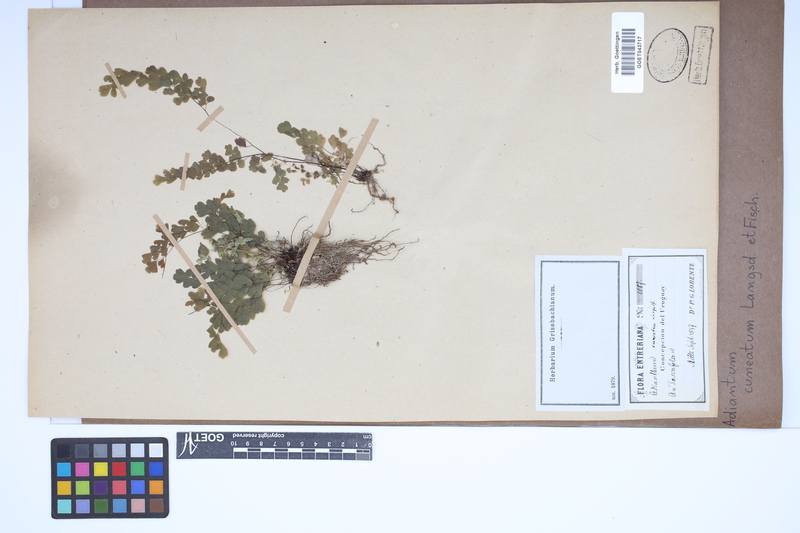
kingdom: Plantae
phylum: Tracheophyta
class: Polypodiopsida
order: Polypodiales
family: Pteridaceae
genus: Adiantum
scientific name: Adiantum raddianum
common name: Delta maidenhair fern
